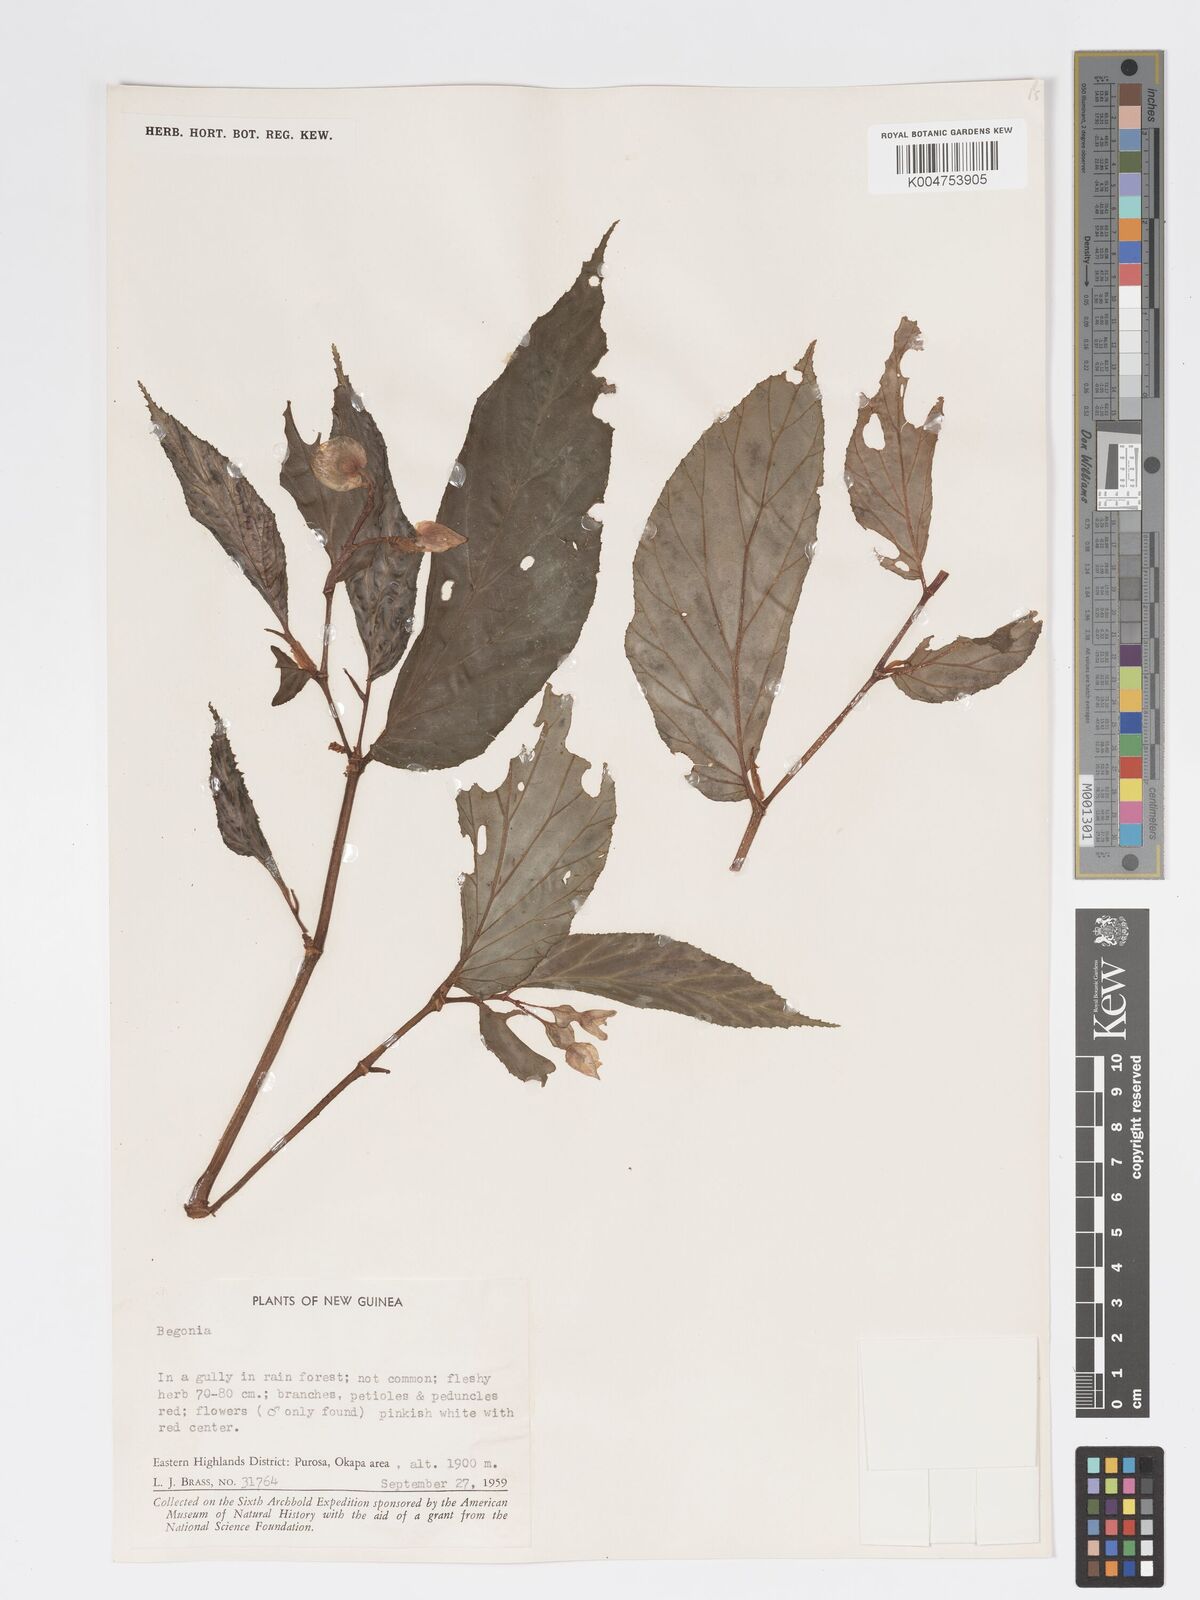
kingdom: Plantae
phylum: Tracheophyta
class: Magnoliopsida
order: Cucurbitales
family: Begoniaceae
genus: Begonia
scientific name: Begonia
